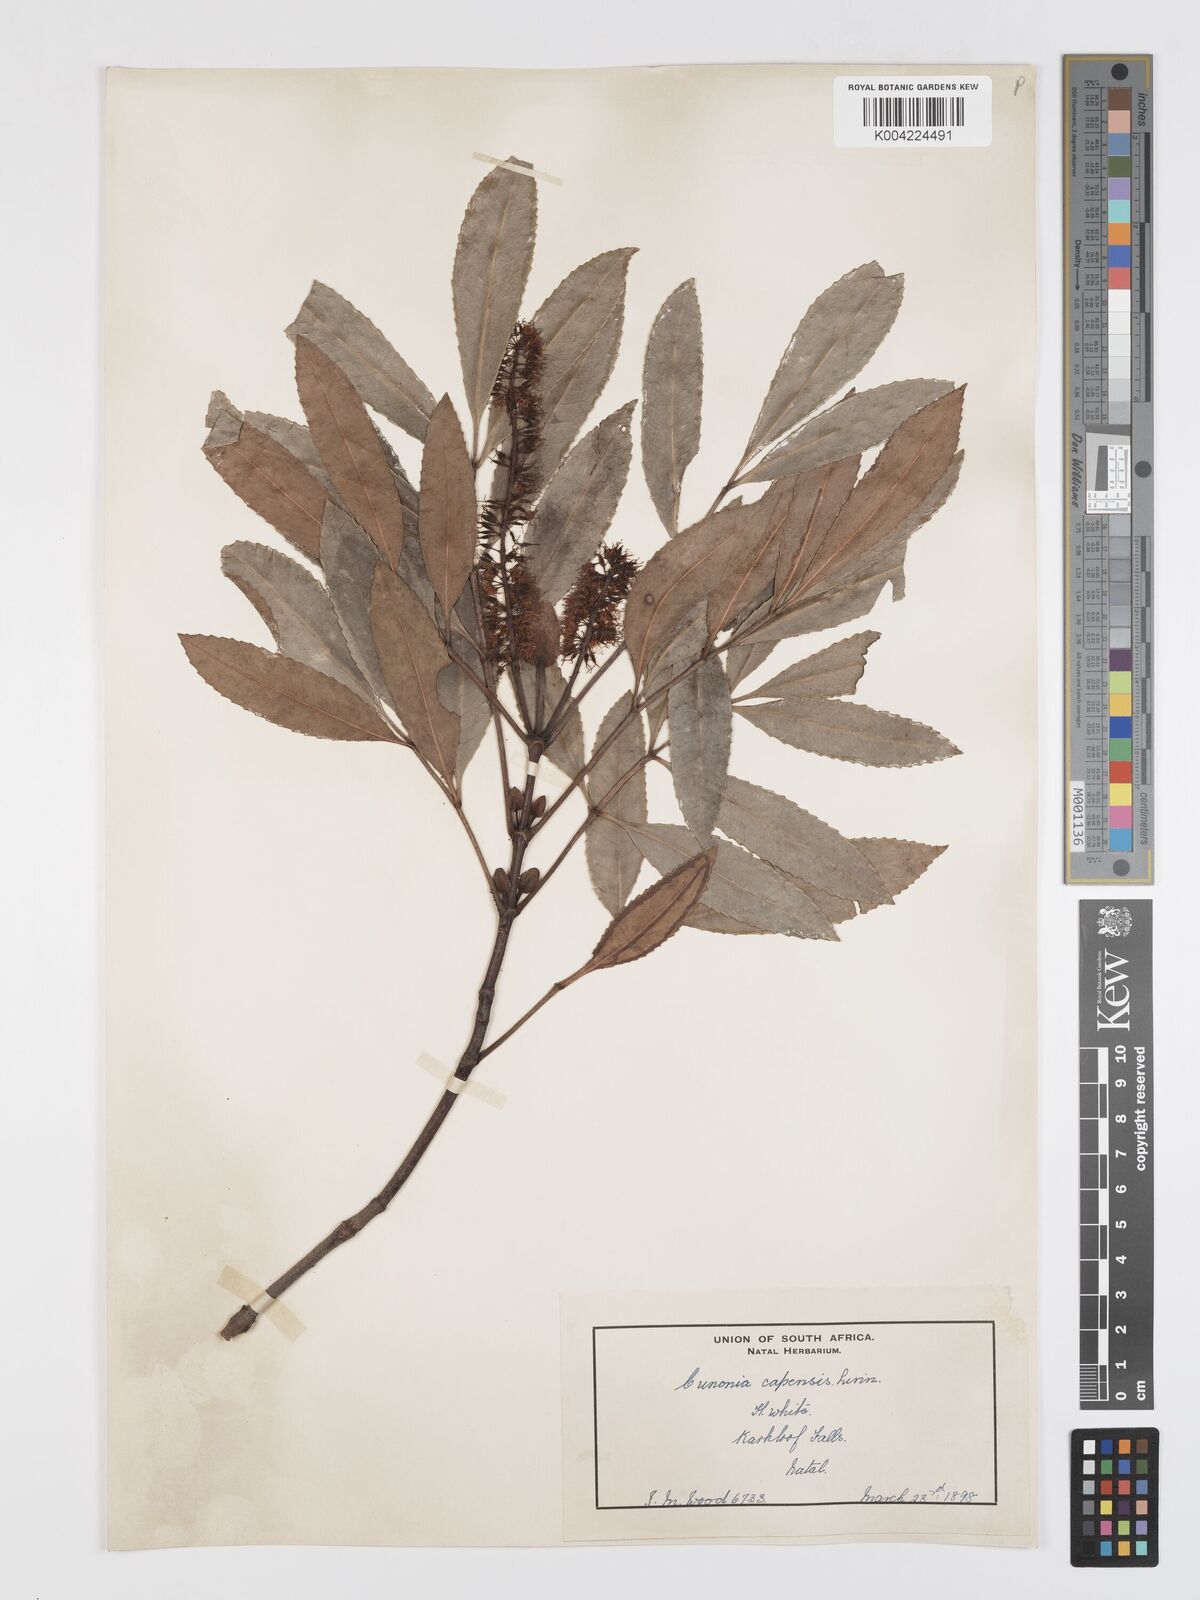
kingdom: Plantae
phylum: Tracheophyta
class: Magnoliopsida
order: Oxalidales
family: Cunoniaceae
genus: Cunonia
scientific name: Cunonia capensis
